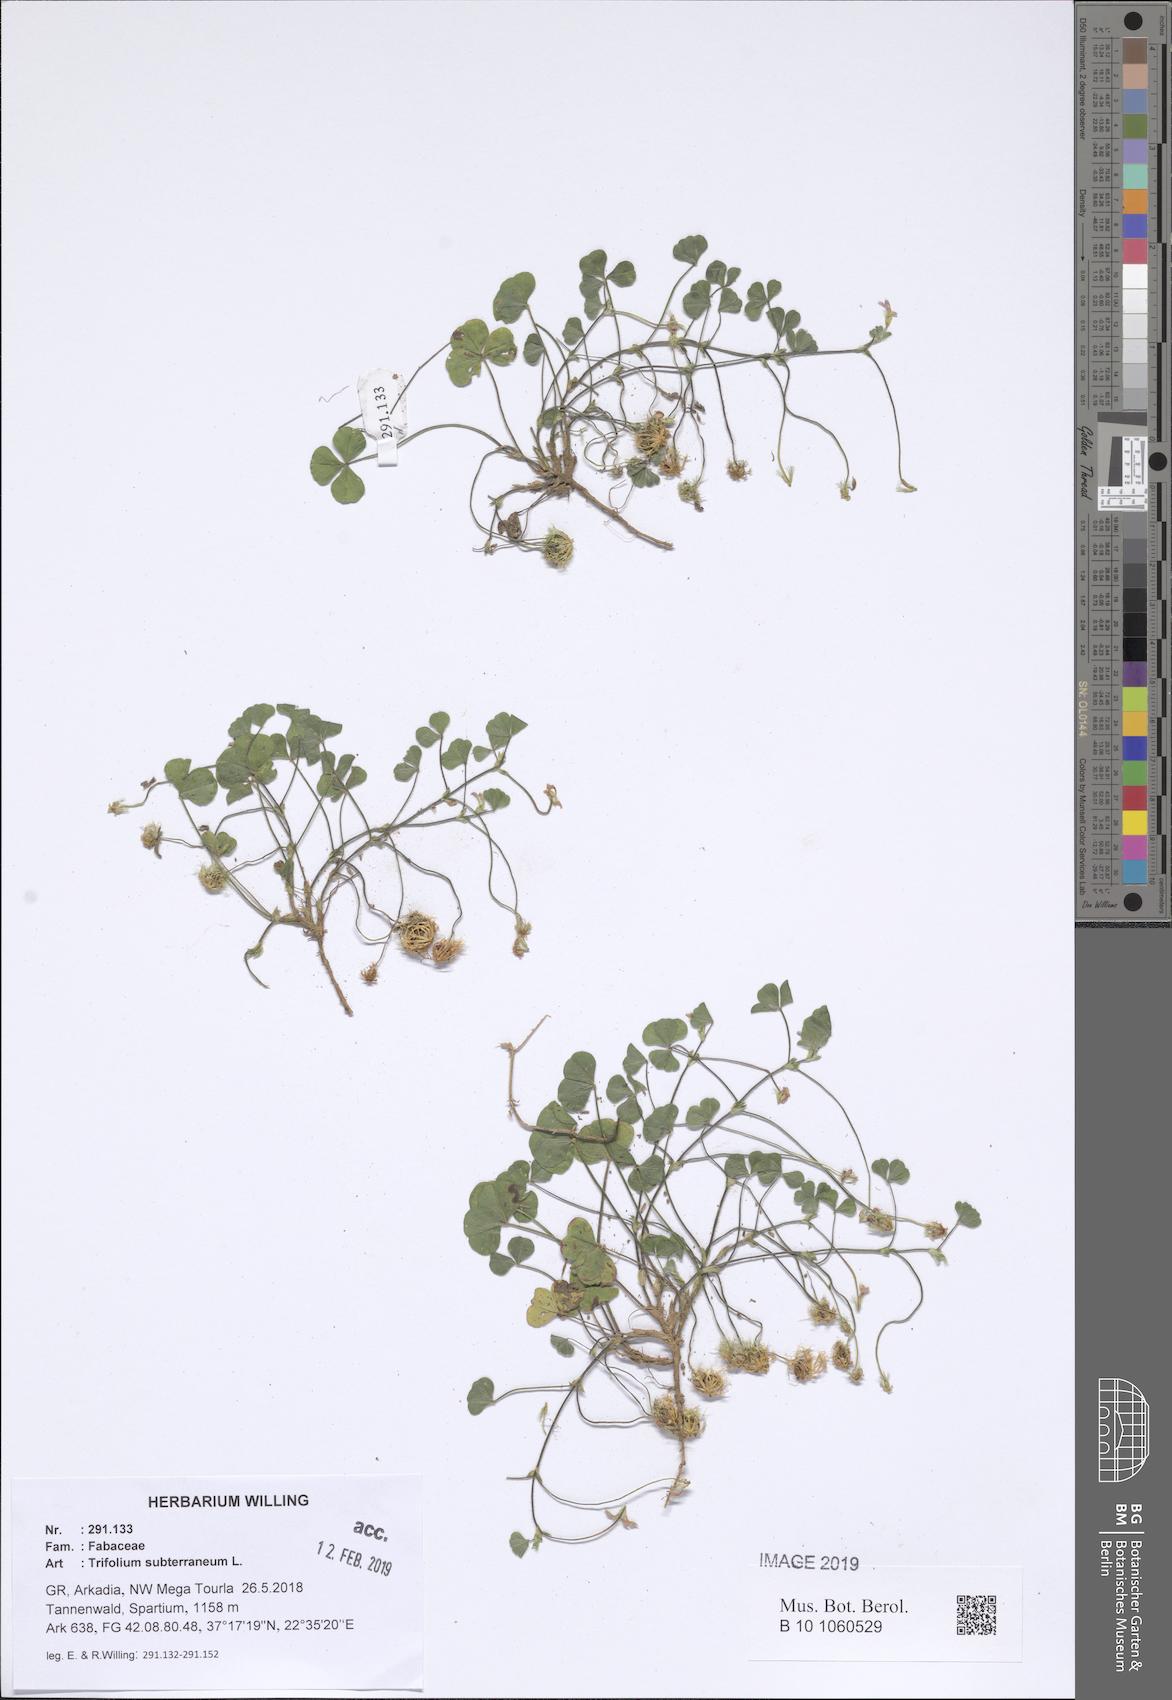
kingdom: Plantae
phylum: Tracheophyta
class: Magnoliopsida
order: Fabales
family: Fabaceae
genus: Trifolium
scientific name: Trifolium subterraneum
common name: Subterranean clover
